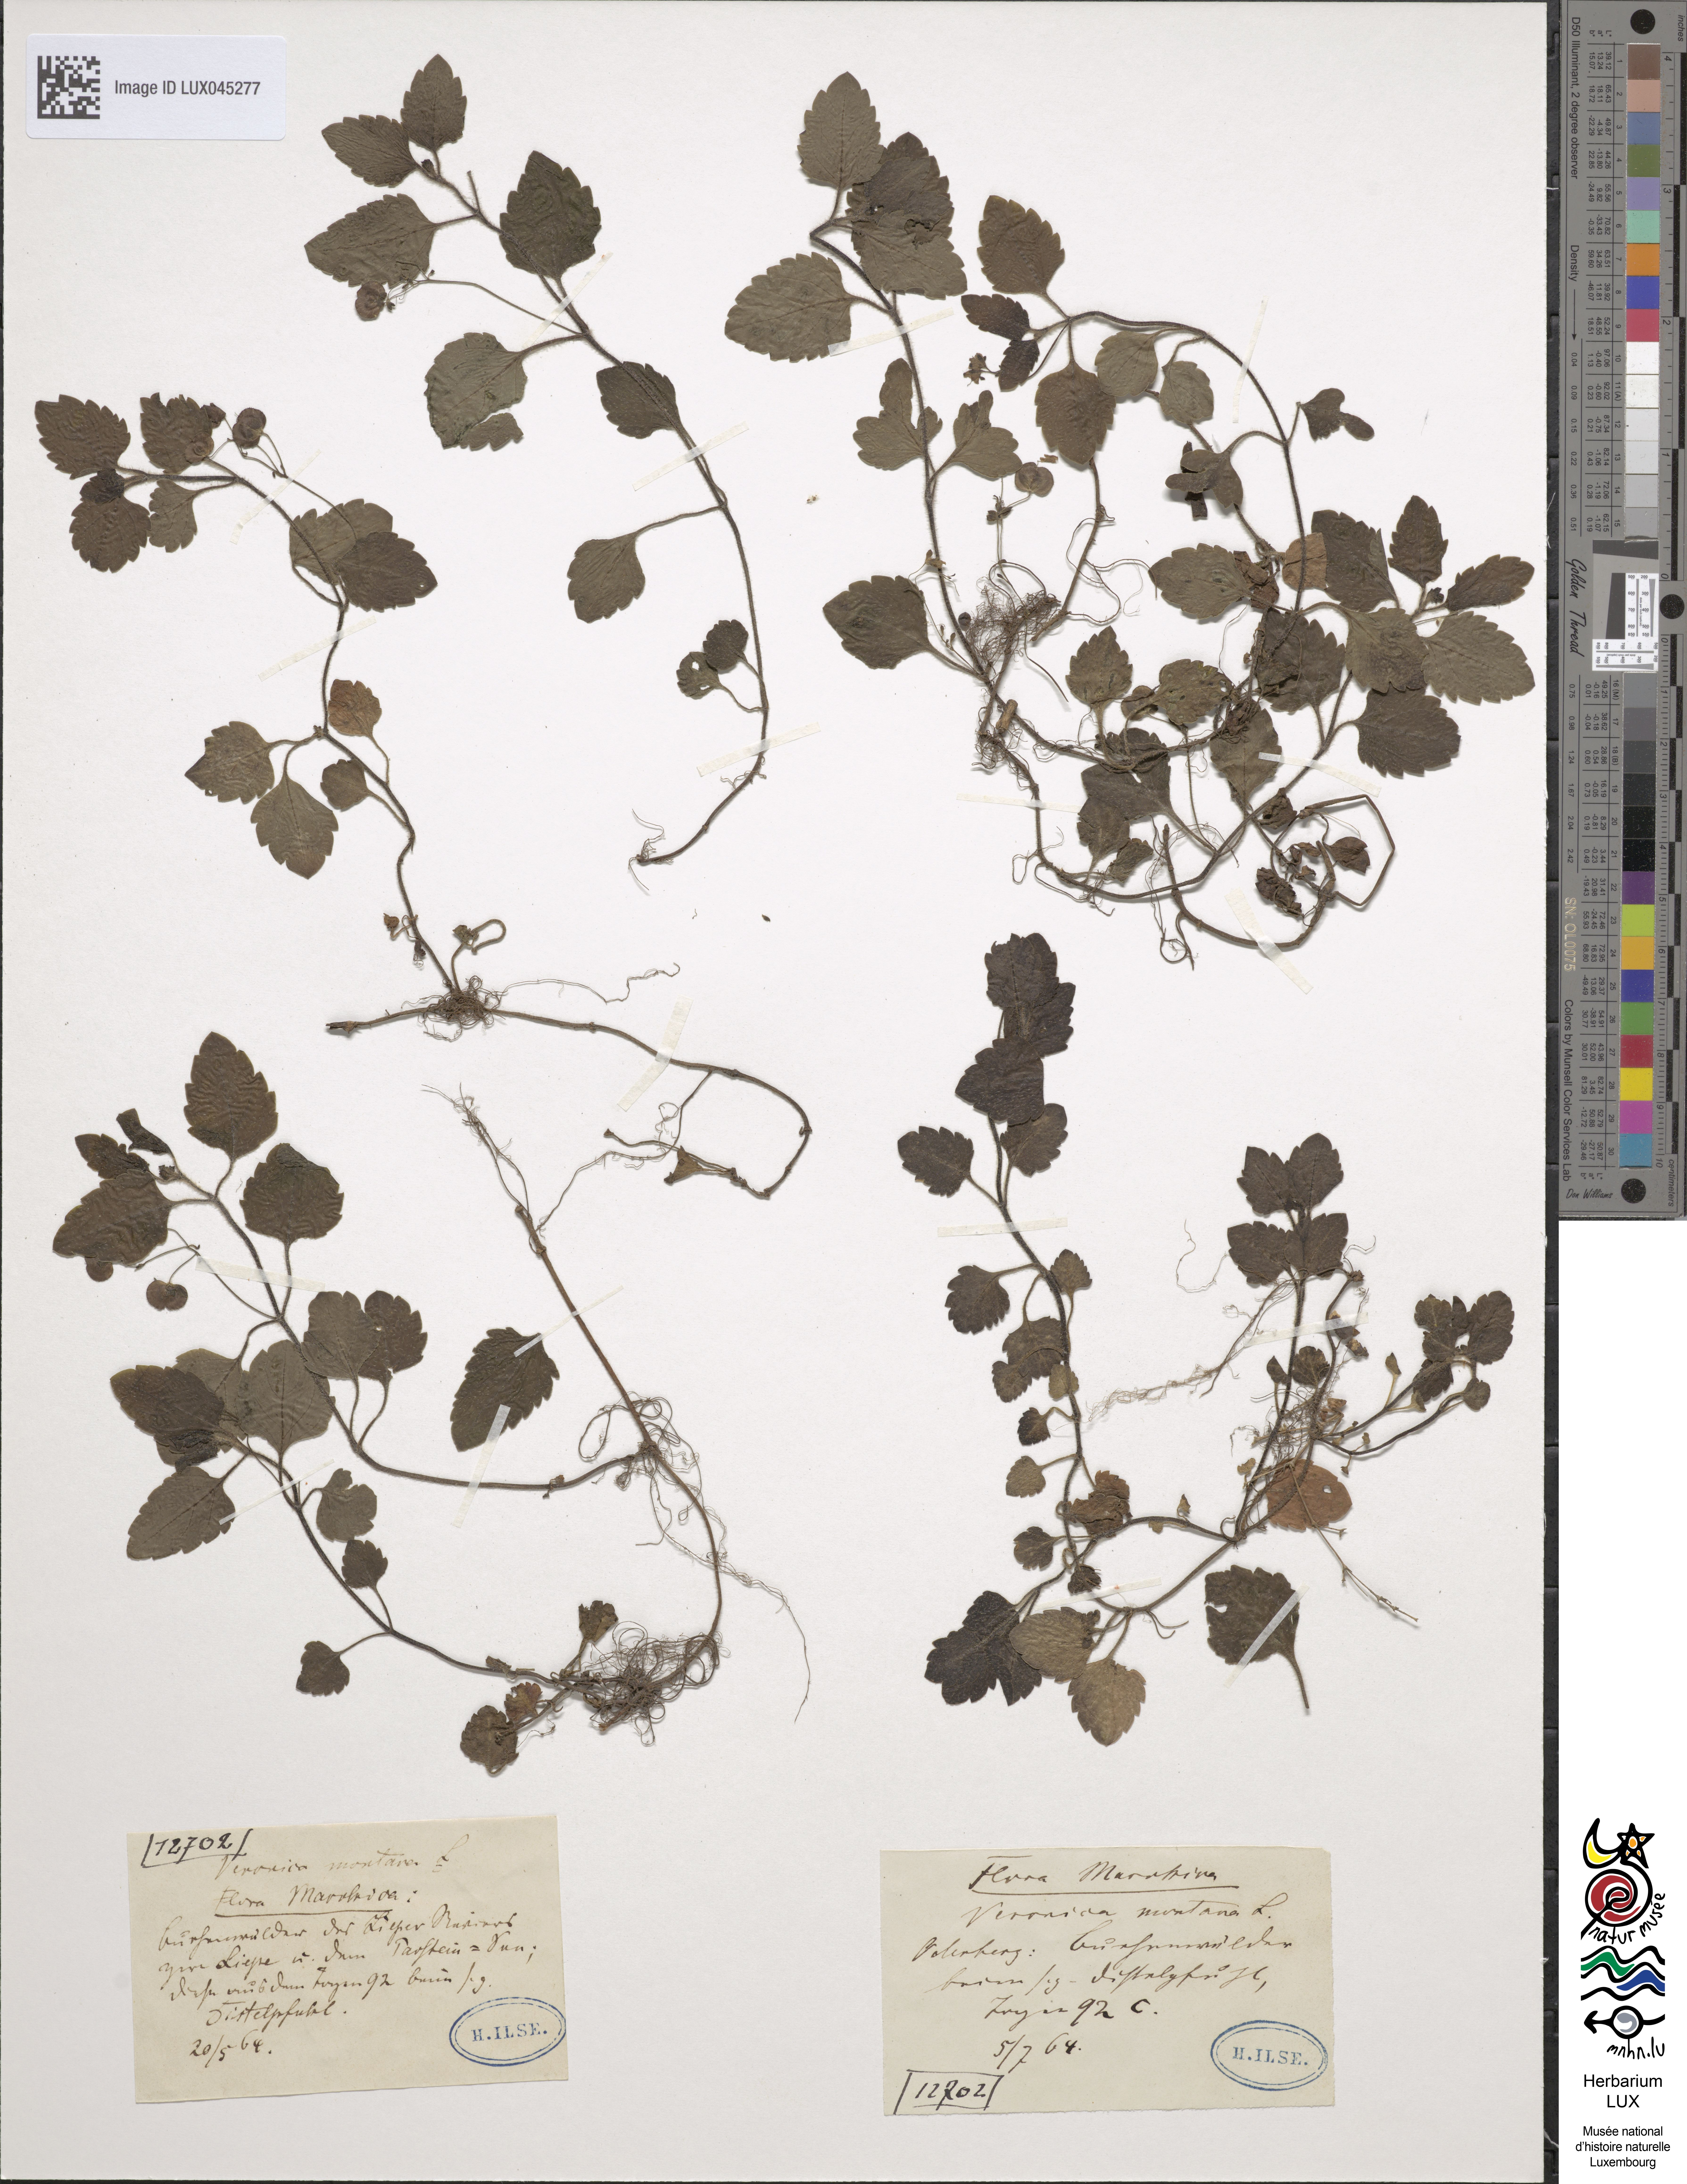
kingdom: Plantae
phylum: Tracheophyta
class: Magnoliopsida
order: Lamiales
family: Plantaginaceae
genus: Veronica
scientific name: Veronica montana
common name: Wood speedwell
